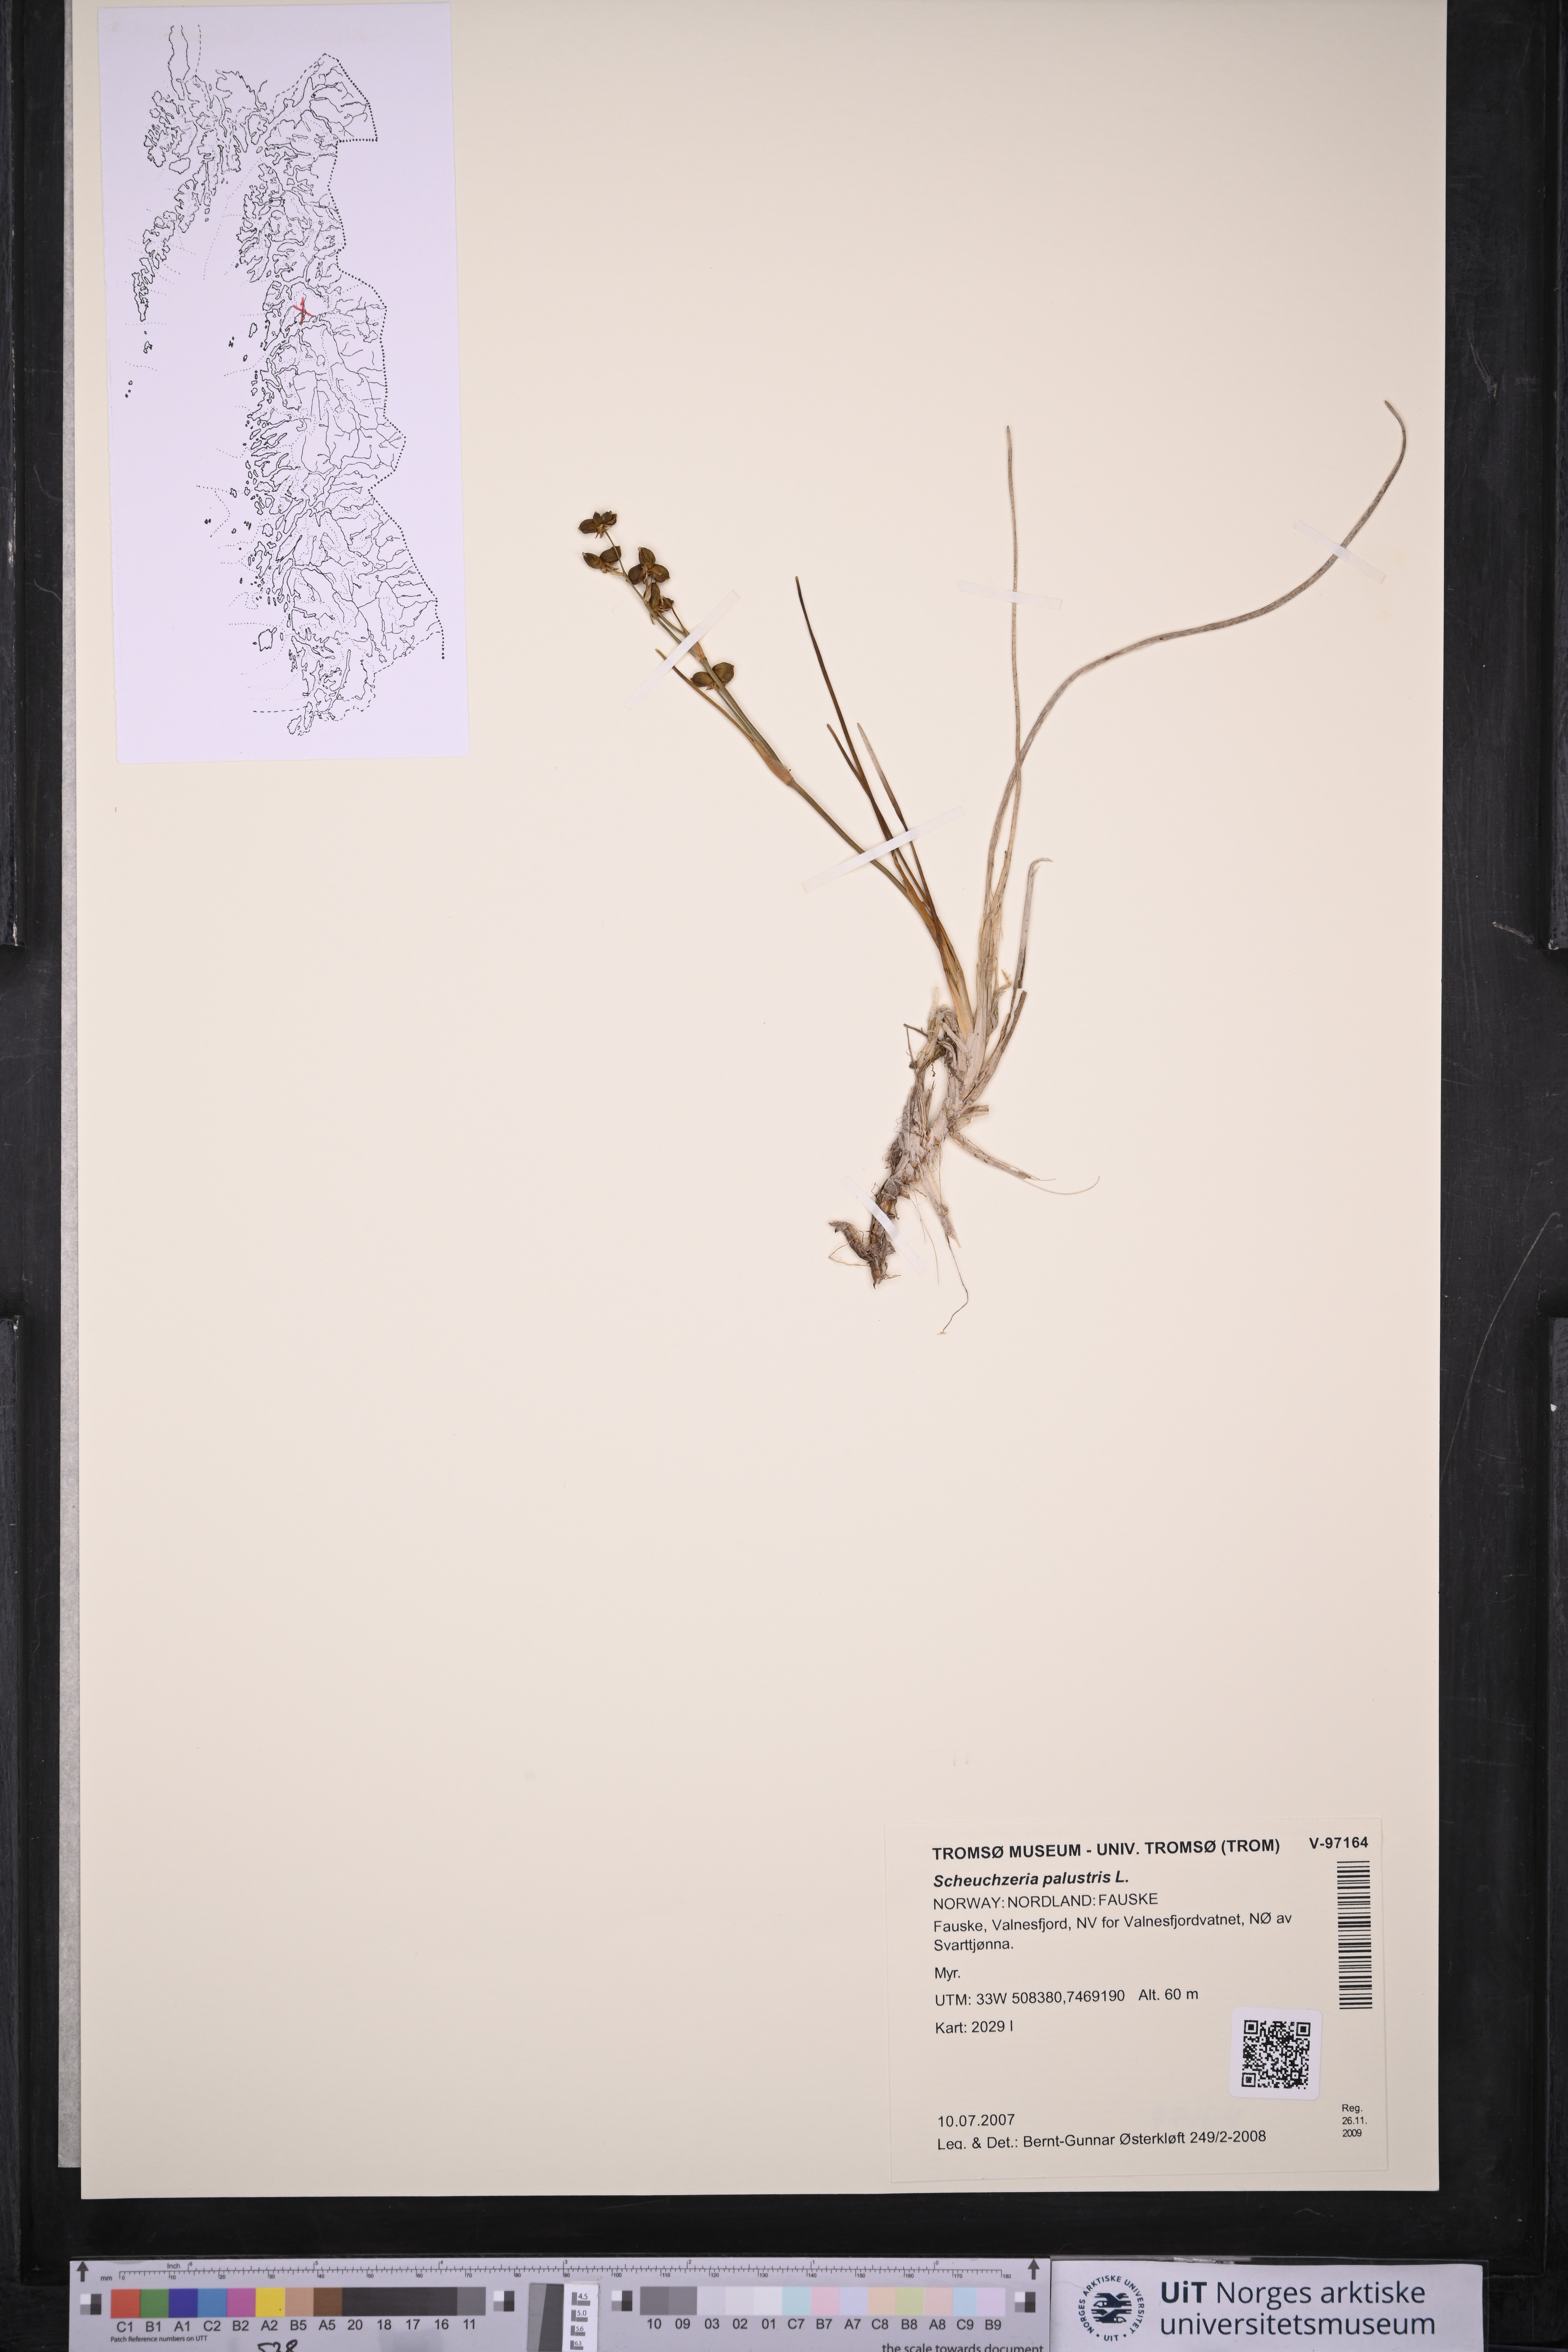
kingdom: Plantae
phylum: Tracheophyta
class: Liliopsida
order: Alismatales
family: Scheuchzeriaceae
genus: Scheuchzeria
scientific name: Scheuchzeria palustris
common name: Rannoch-rush
